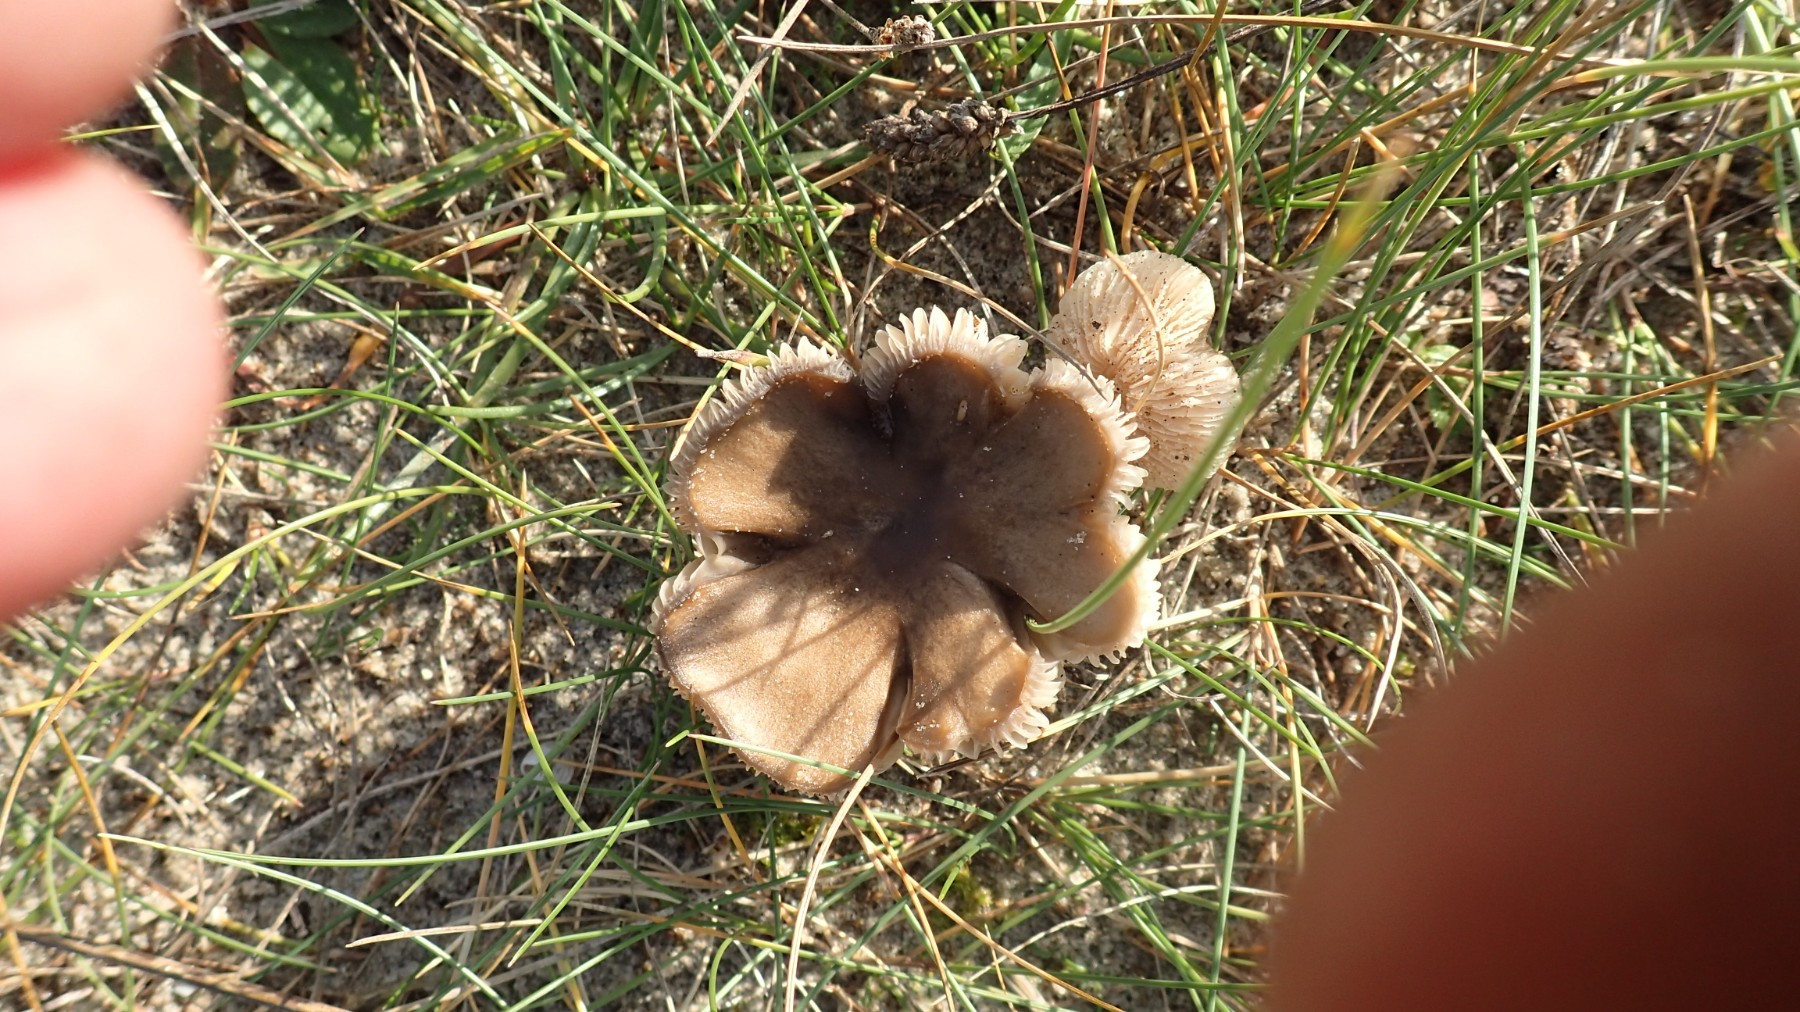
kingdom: Fungi
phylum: Basidiomycota
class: Agaricomycetes
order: Agaricales
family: Tricholomataceae
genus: Melanoleuca
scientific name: Melanoleuca
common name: munkehat
